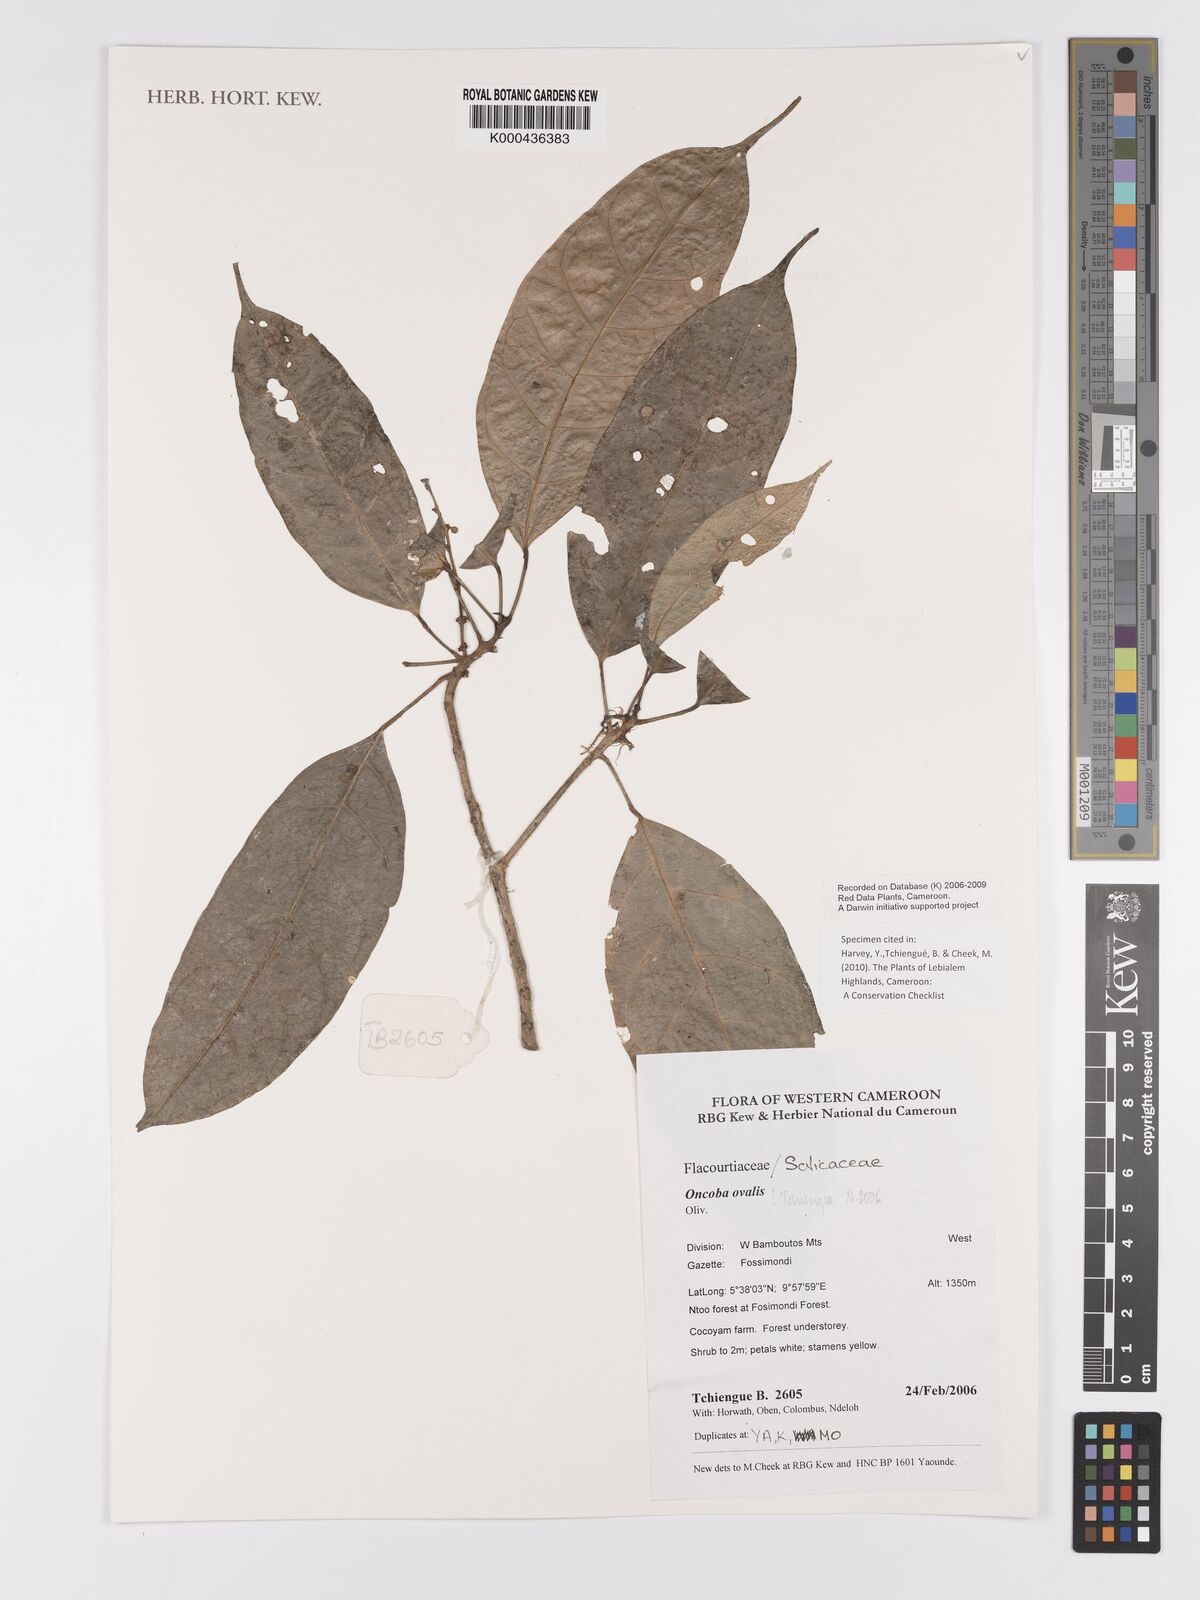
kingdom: Plantae
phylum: Tracheophyta
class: Magnoliopsida
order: Malpighiales
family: Achariaceae
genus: Camptostylus
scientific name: Camptostylus ovalis
